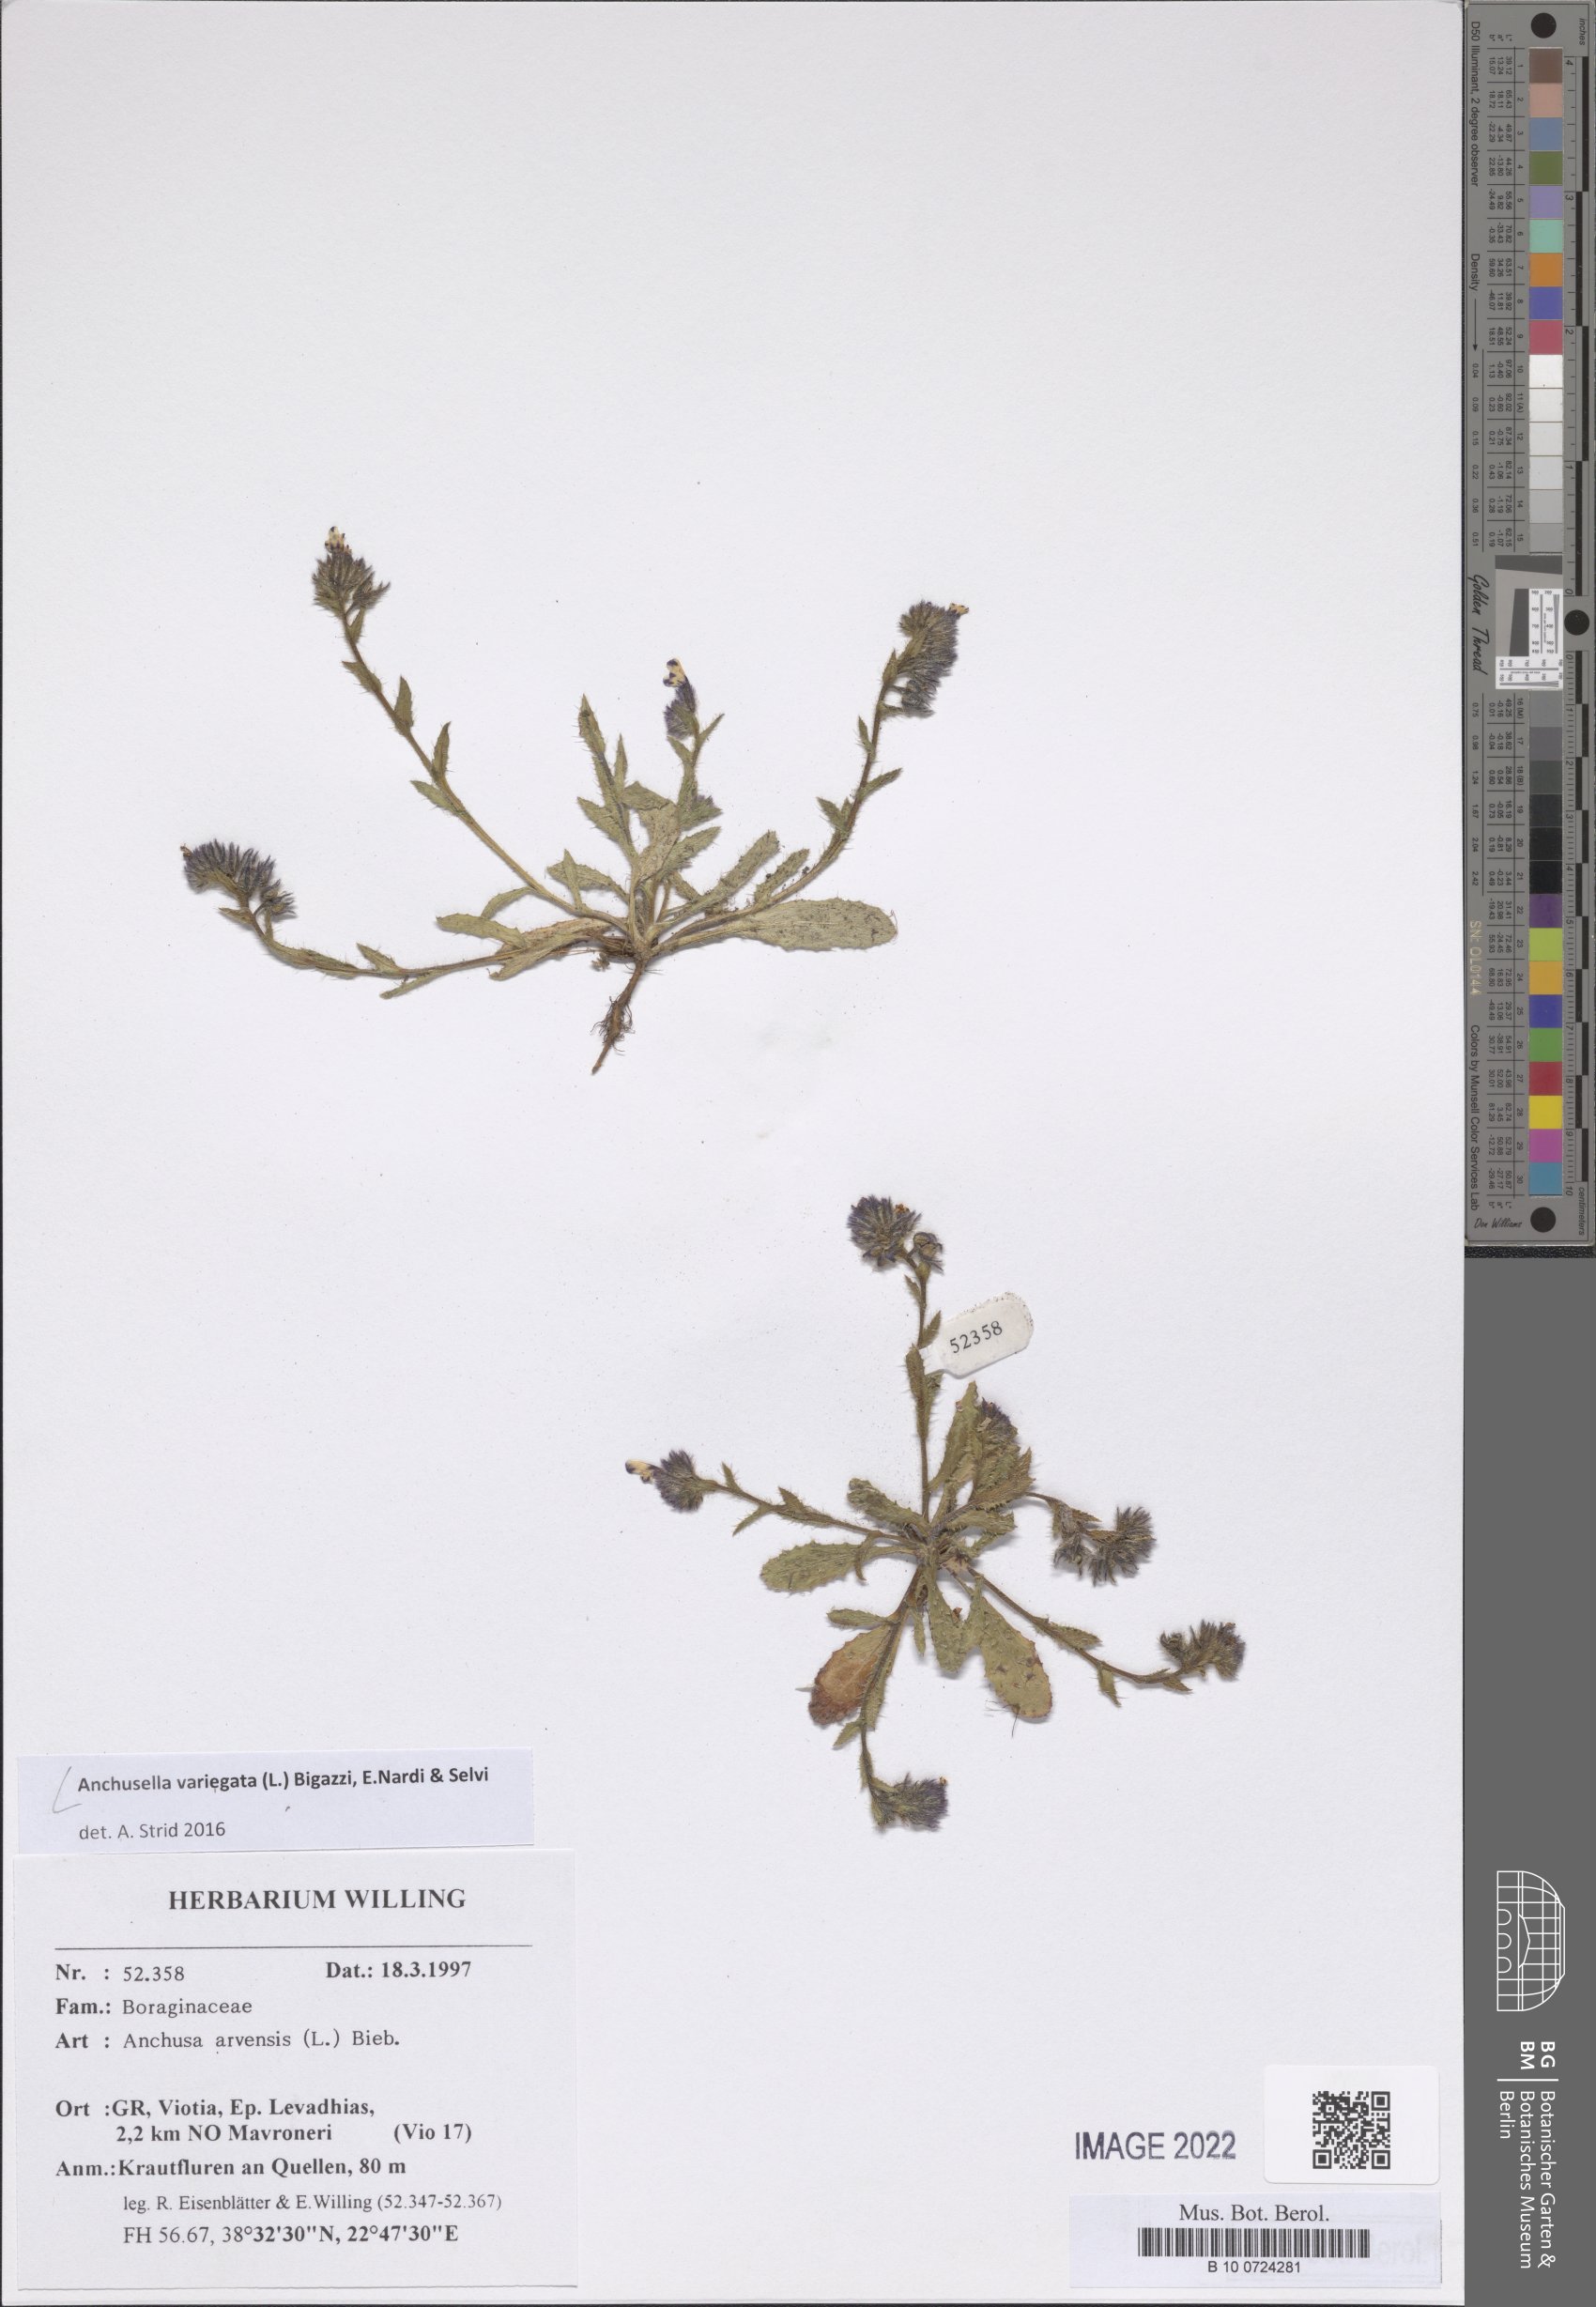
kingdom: Plantae
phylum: Tracheophyta
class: Magnoliopsida
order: Boraginales
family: Boraginaceae
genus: Anchusella
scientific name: Anchusella variegata
